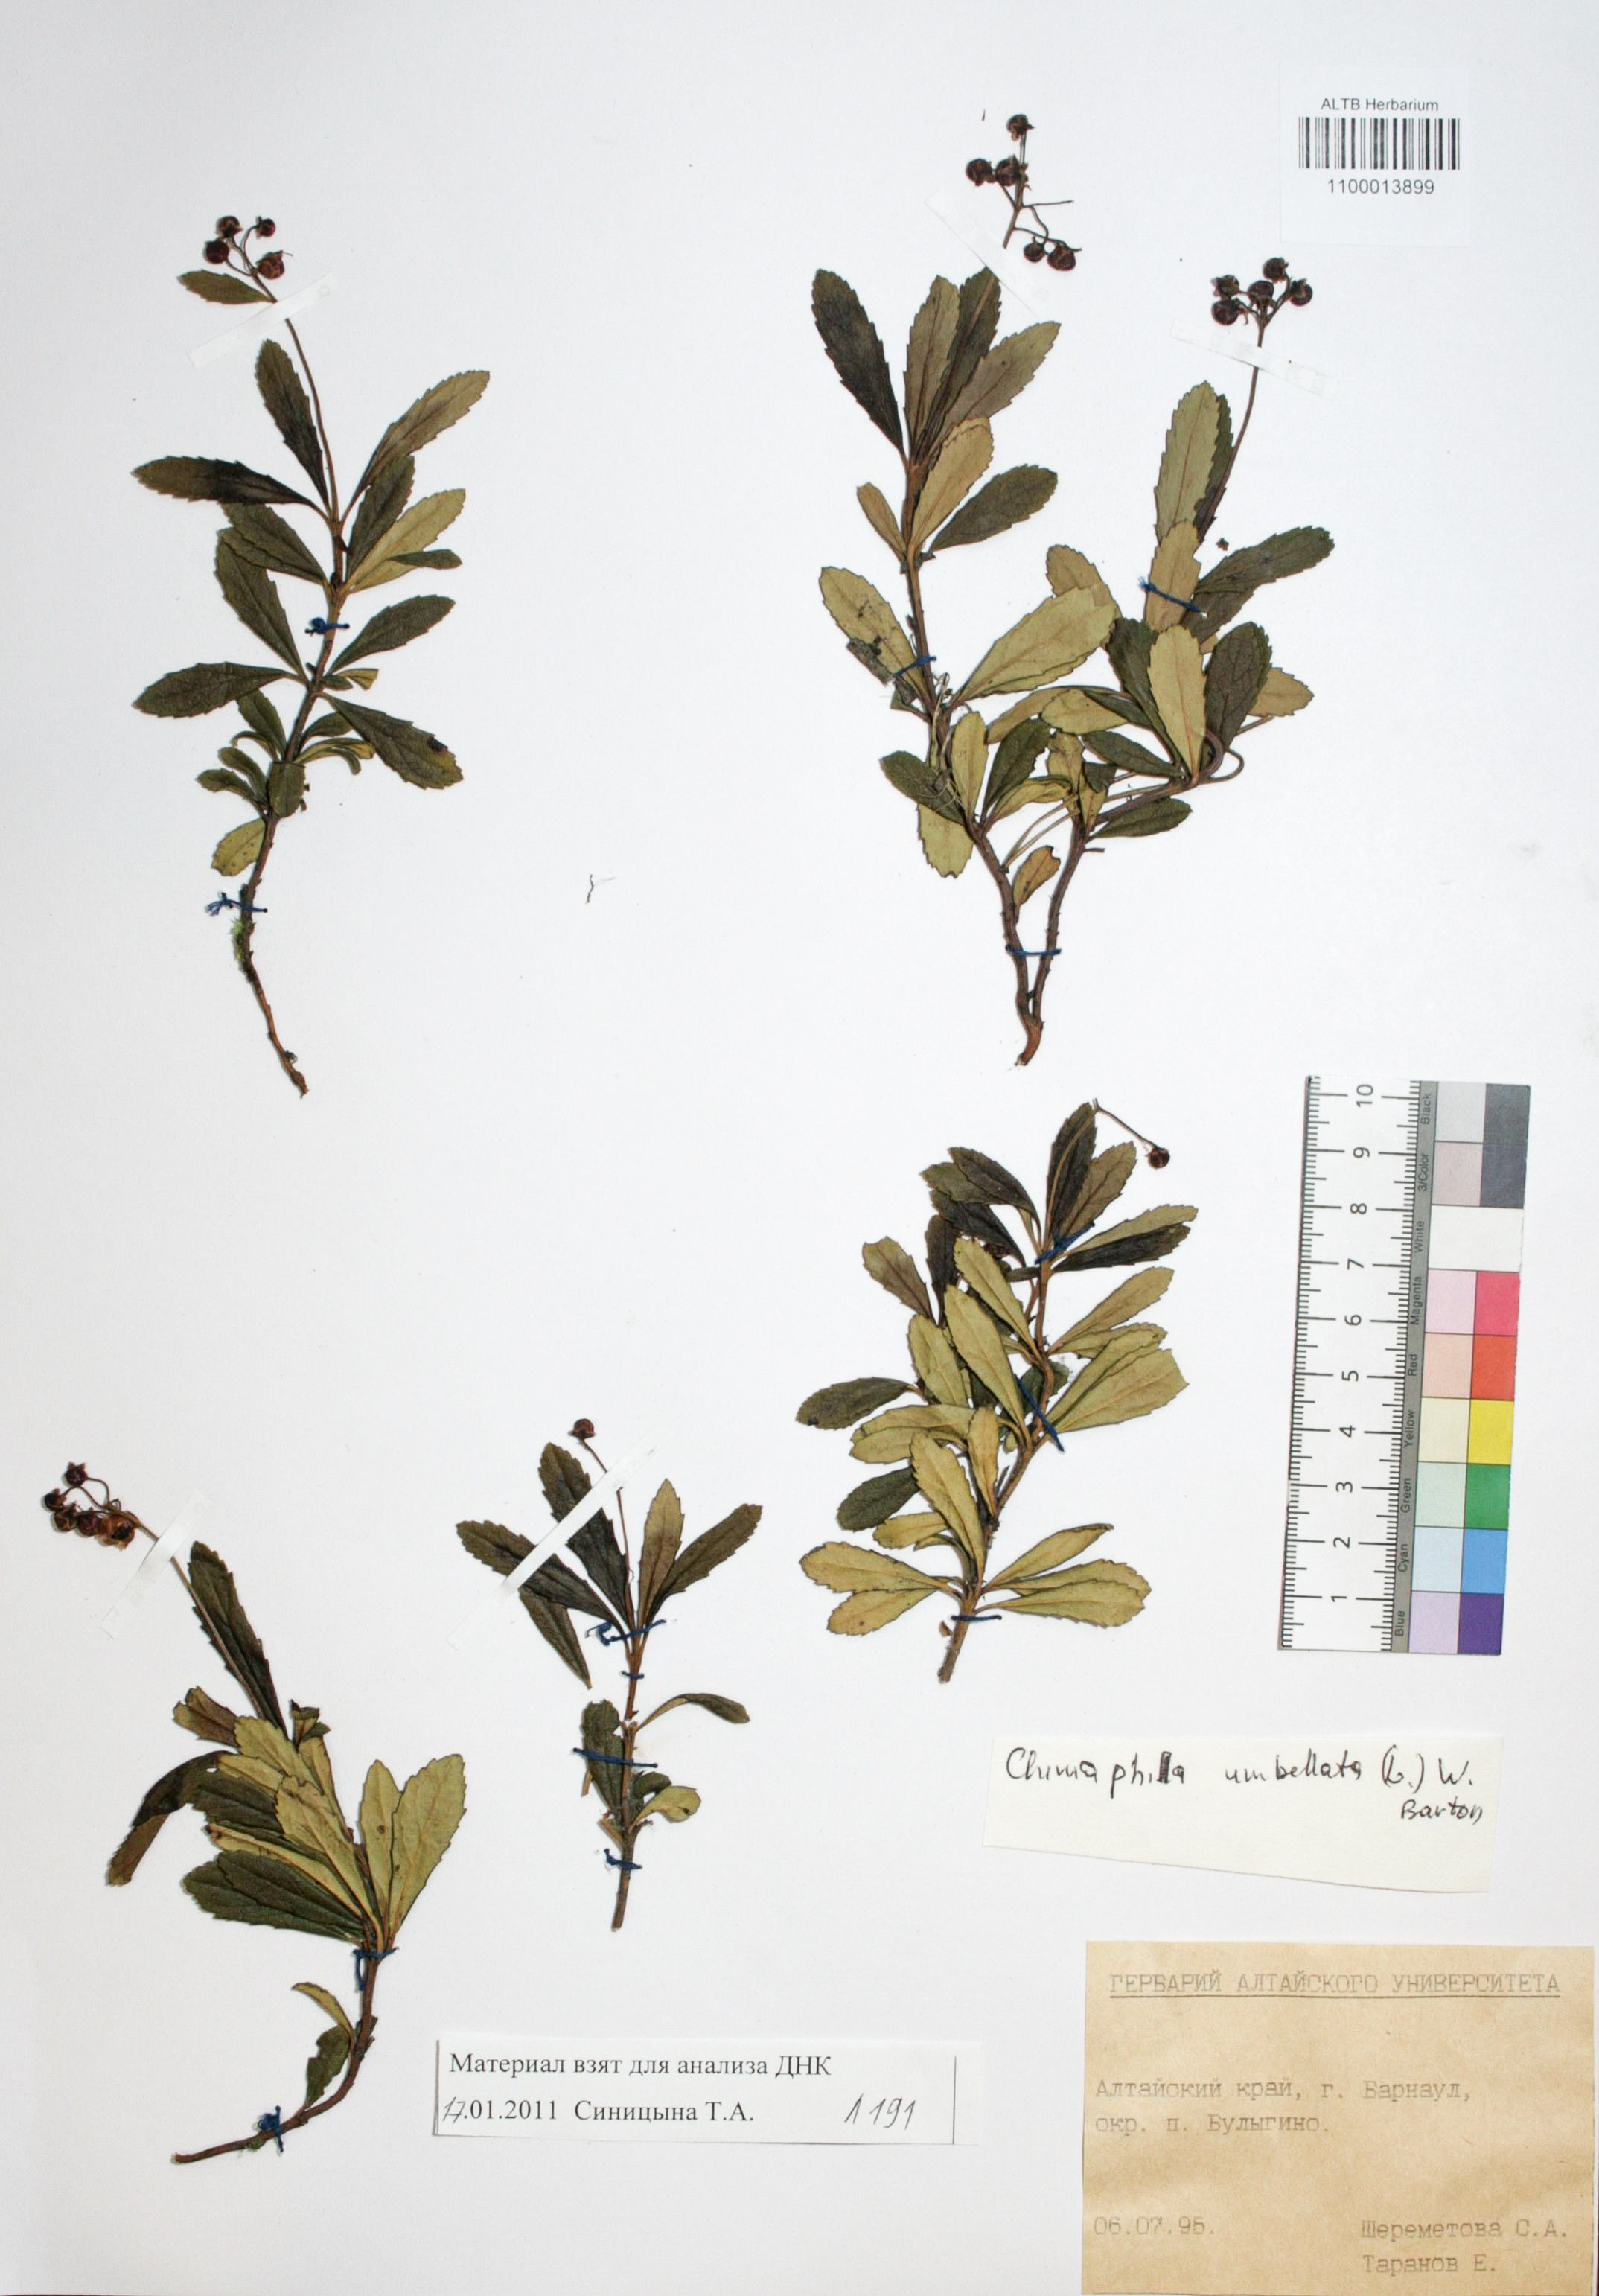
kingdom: Plantae
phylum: Tracheophyta
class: Magnoliopsida
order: Ericales
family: Ericaceae
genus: Chimaphila
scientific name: Chimaphila umbellata
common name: Pipsissewa
